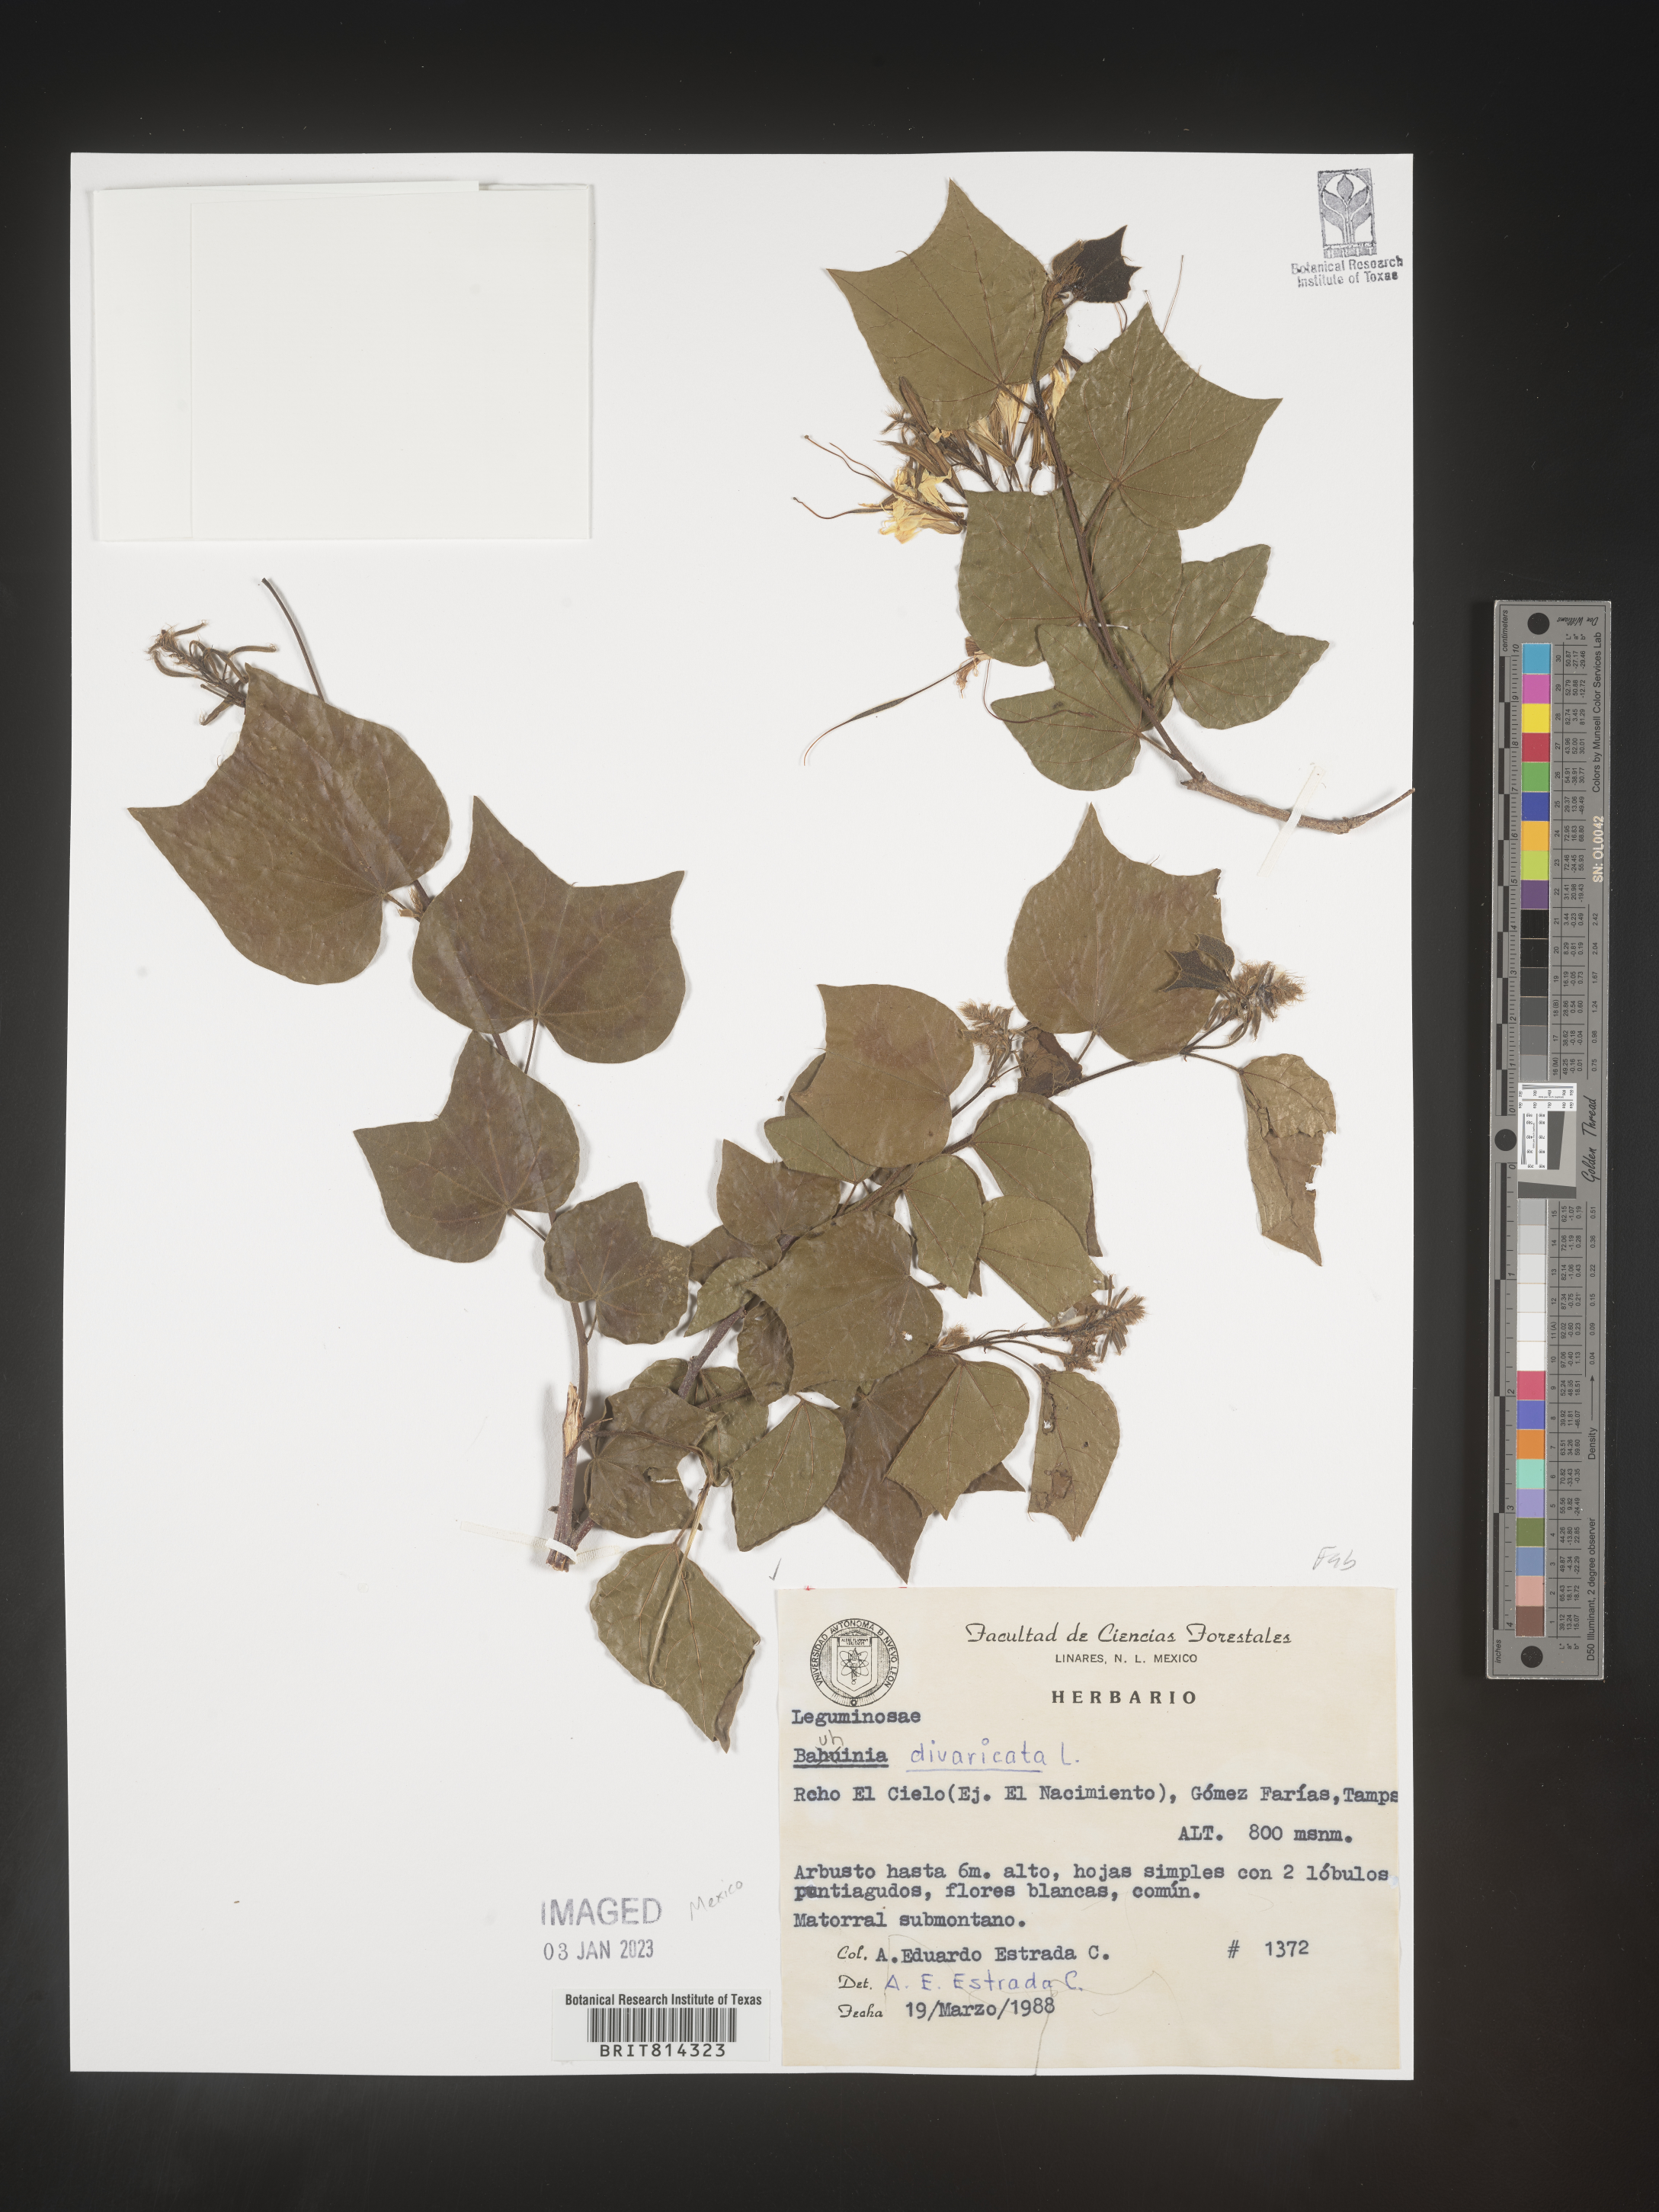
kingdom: Plantae
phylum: Tracheophyta
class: Magnoliopsida
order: Fabales
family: Fabaceae
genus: Bauhinia
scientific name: Bauhinia
